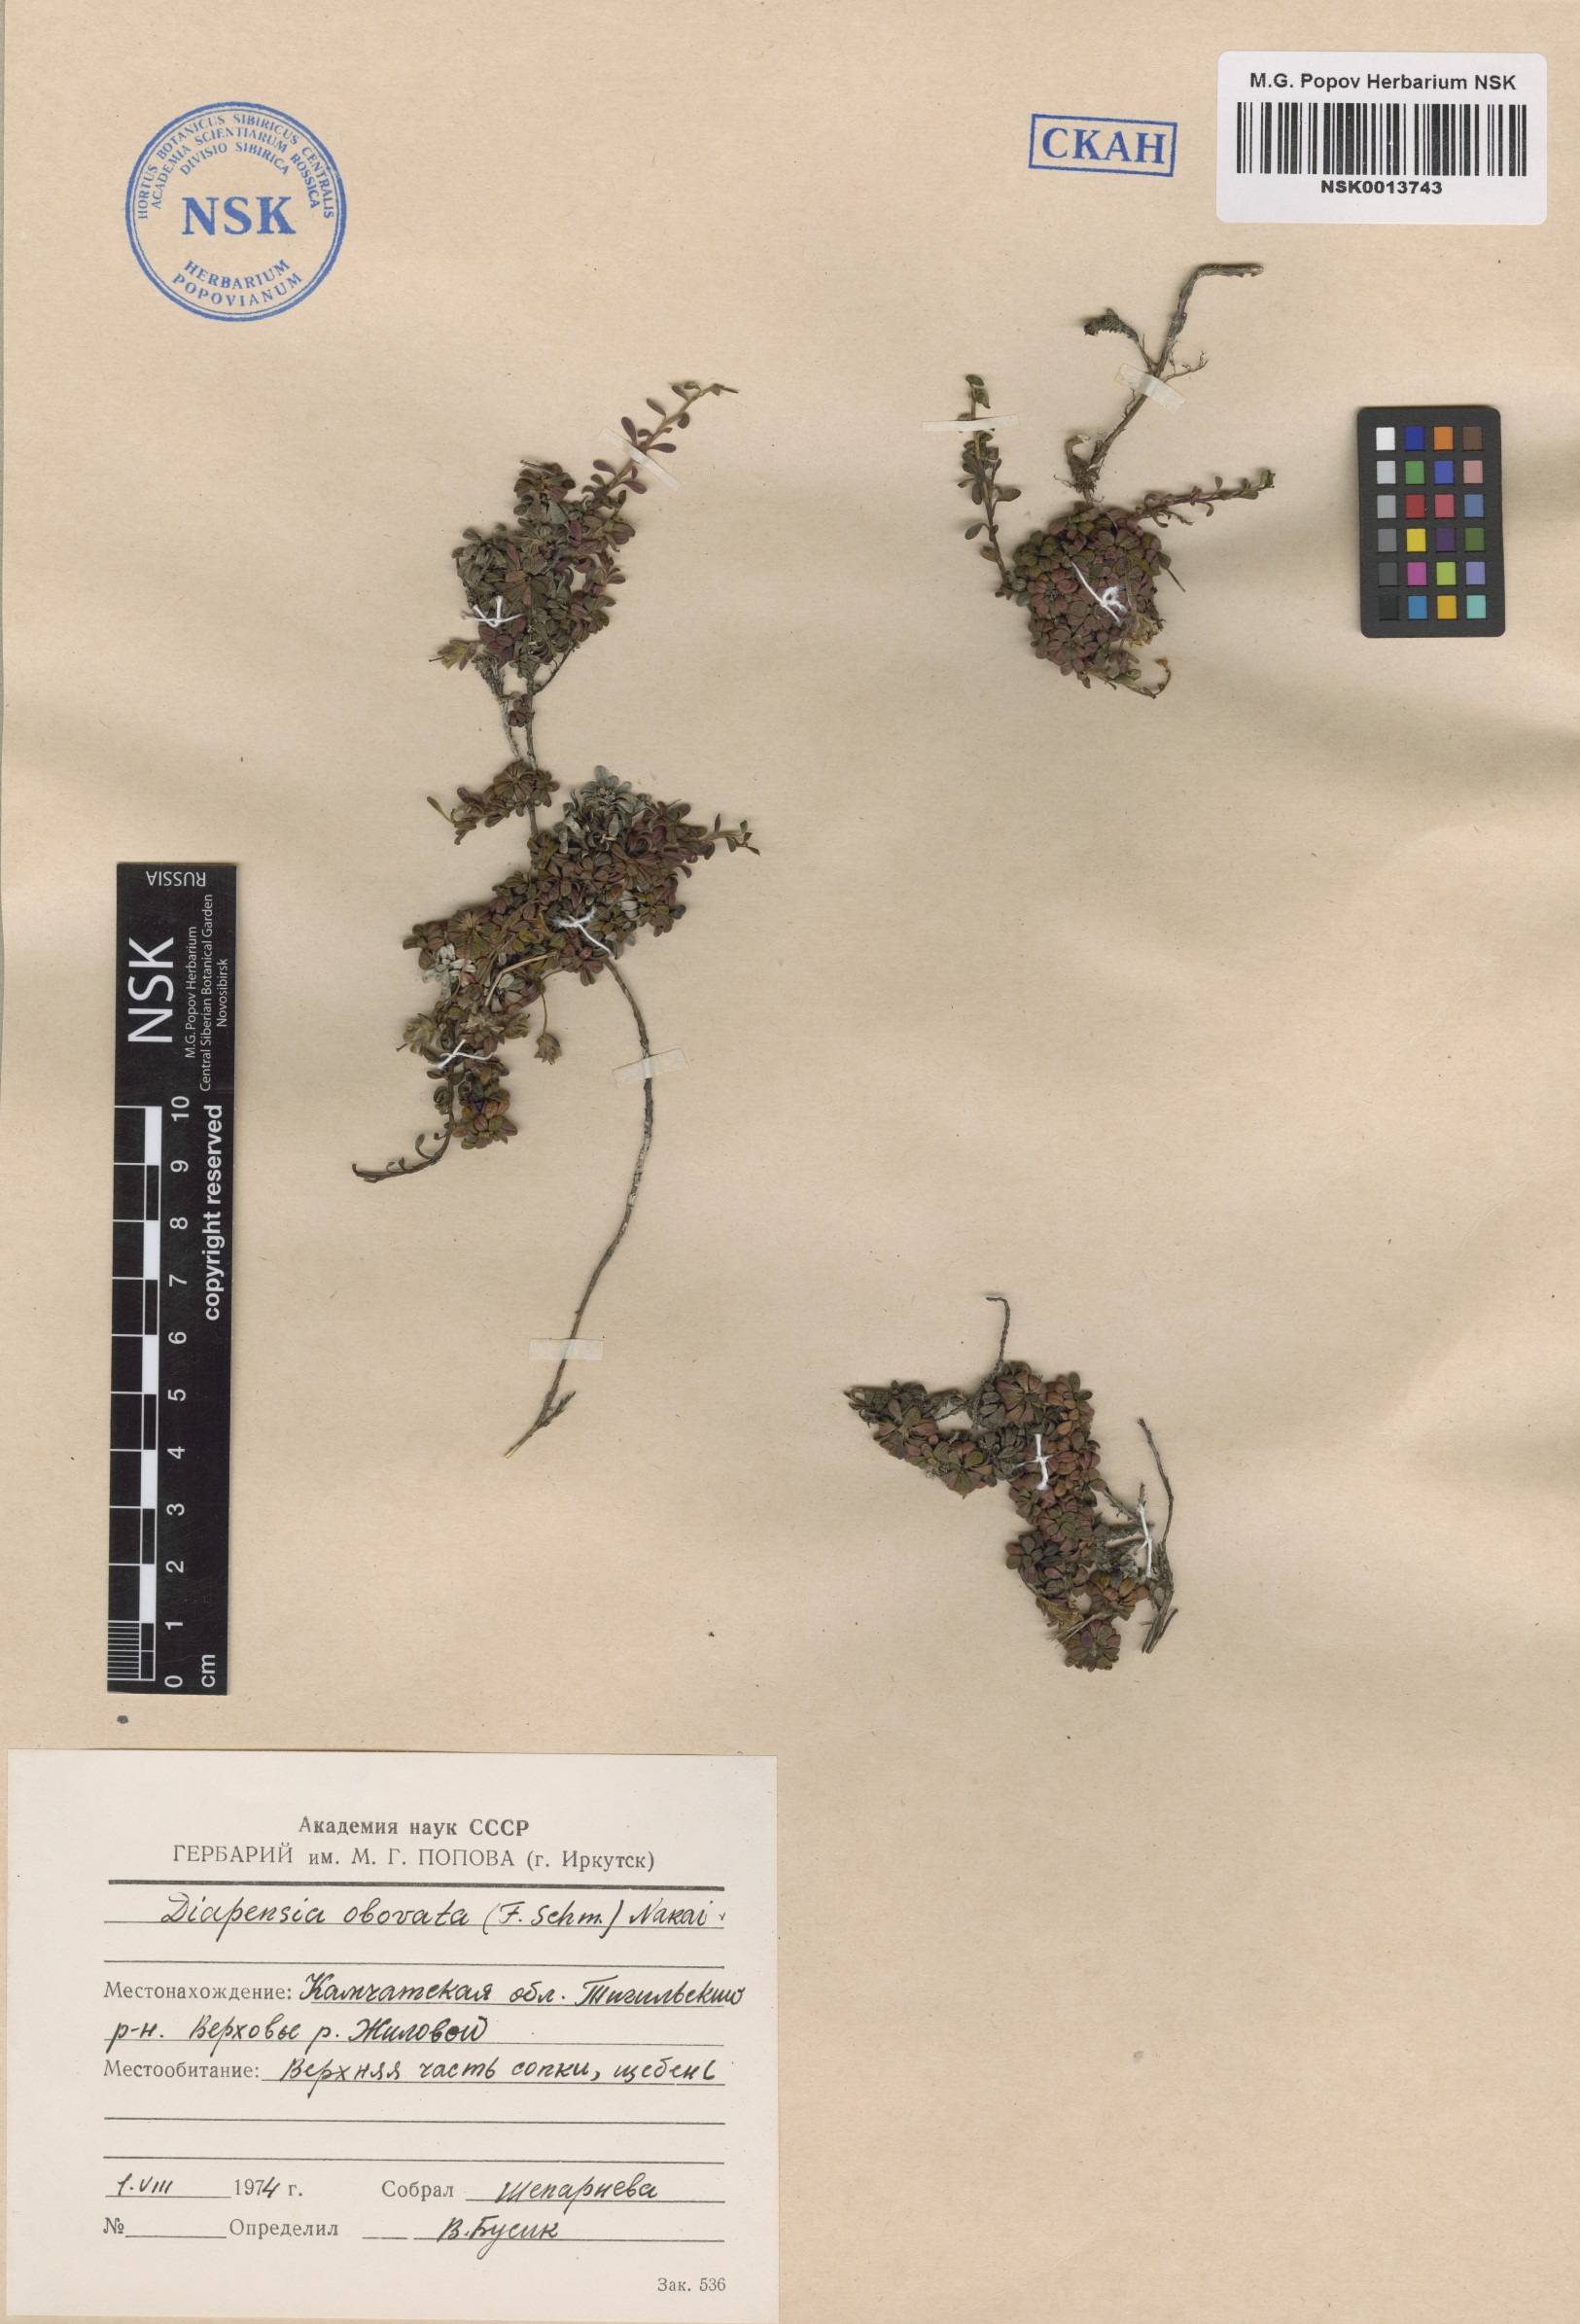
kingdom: Plantae
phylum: Tracheophyta
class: Magnoliopsida
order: Ericales
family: Diapensiaceae
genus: Diapensia
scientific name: Diapensia obovata
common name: Alaska diapensia
